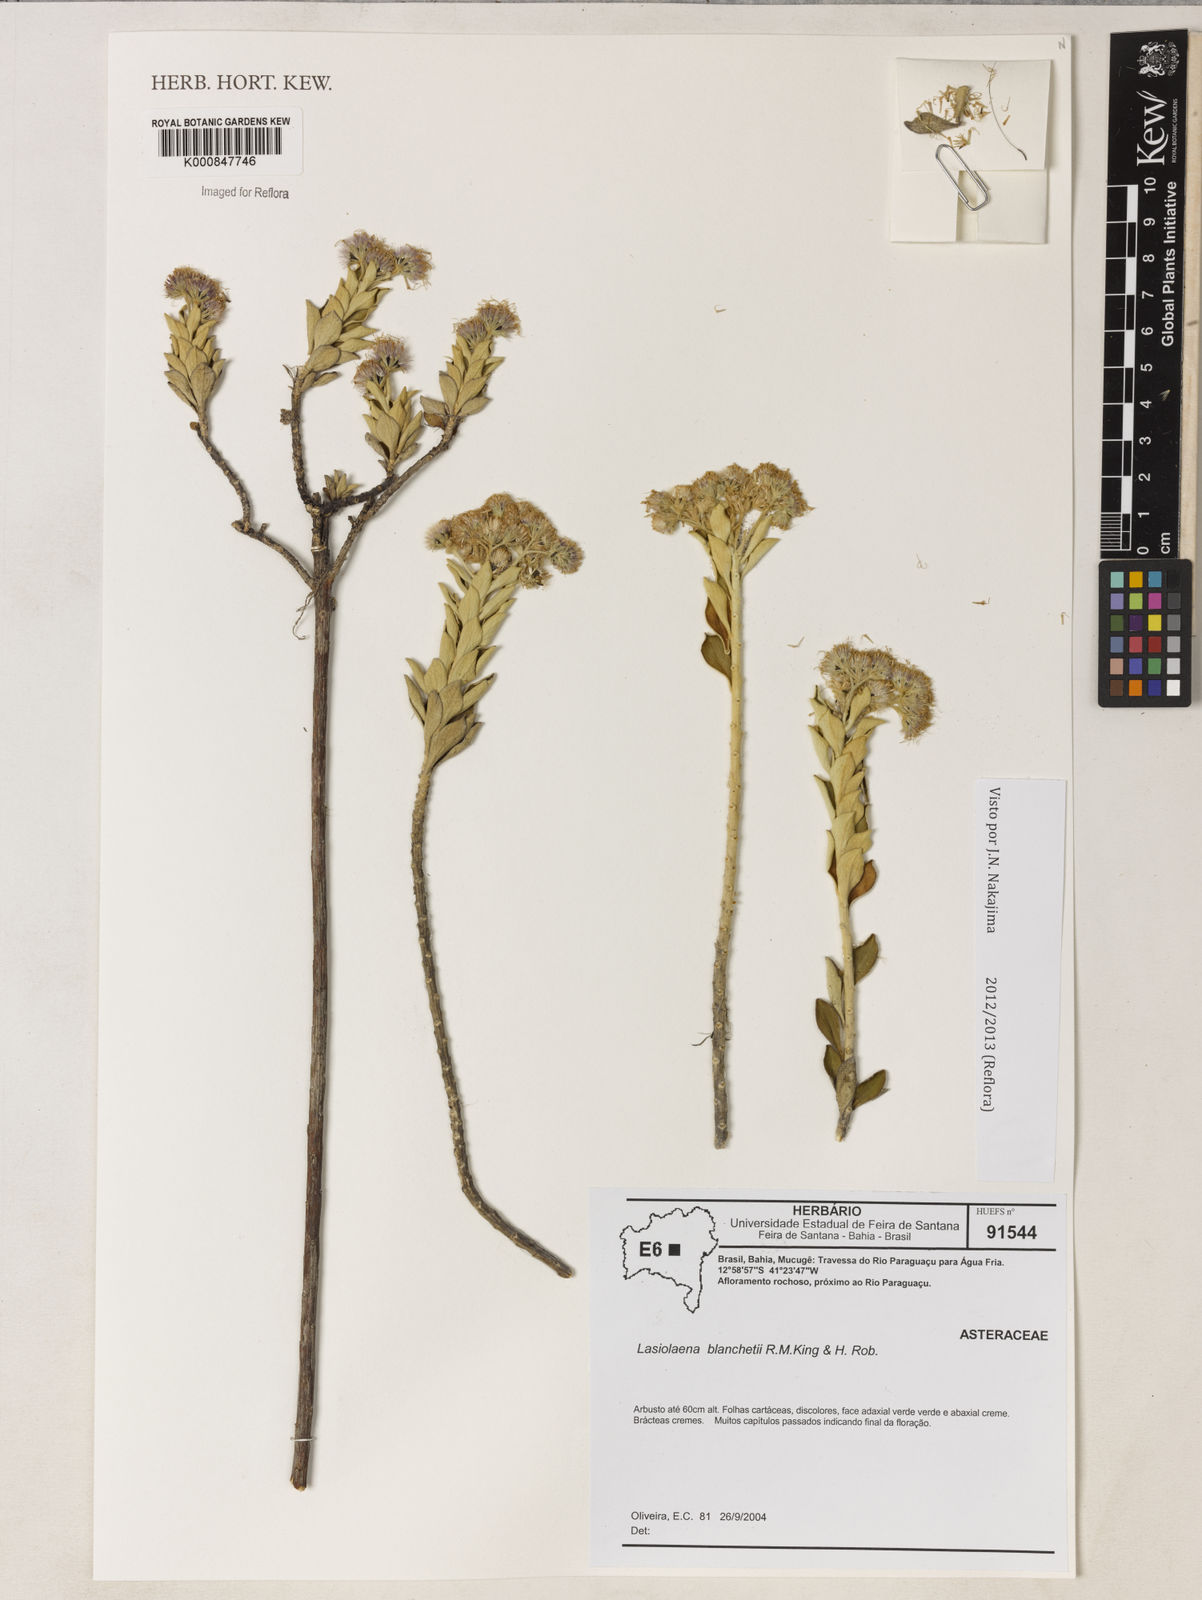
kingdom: Plantae
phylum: Tracheophyta
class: Magnoliopsida
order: Asterales
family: Asteraceae
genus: Lasiolaena
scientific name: Lasiolaena blanchetii
